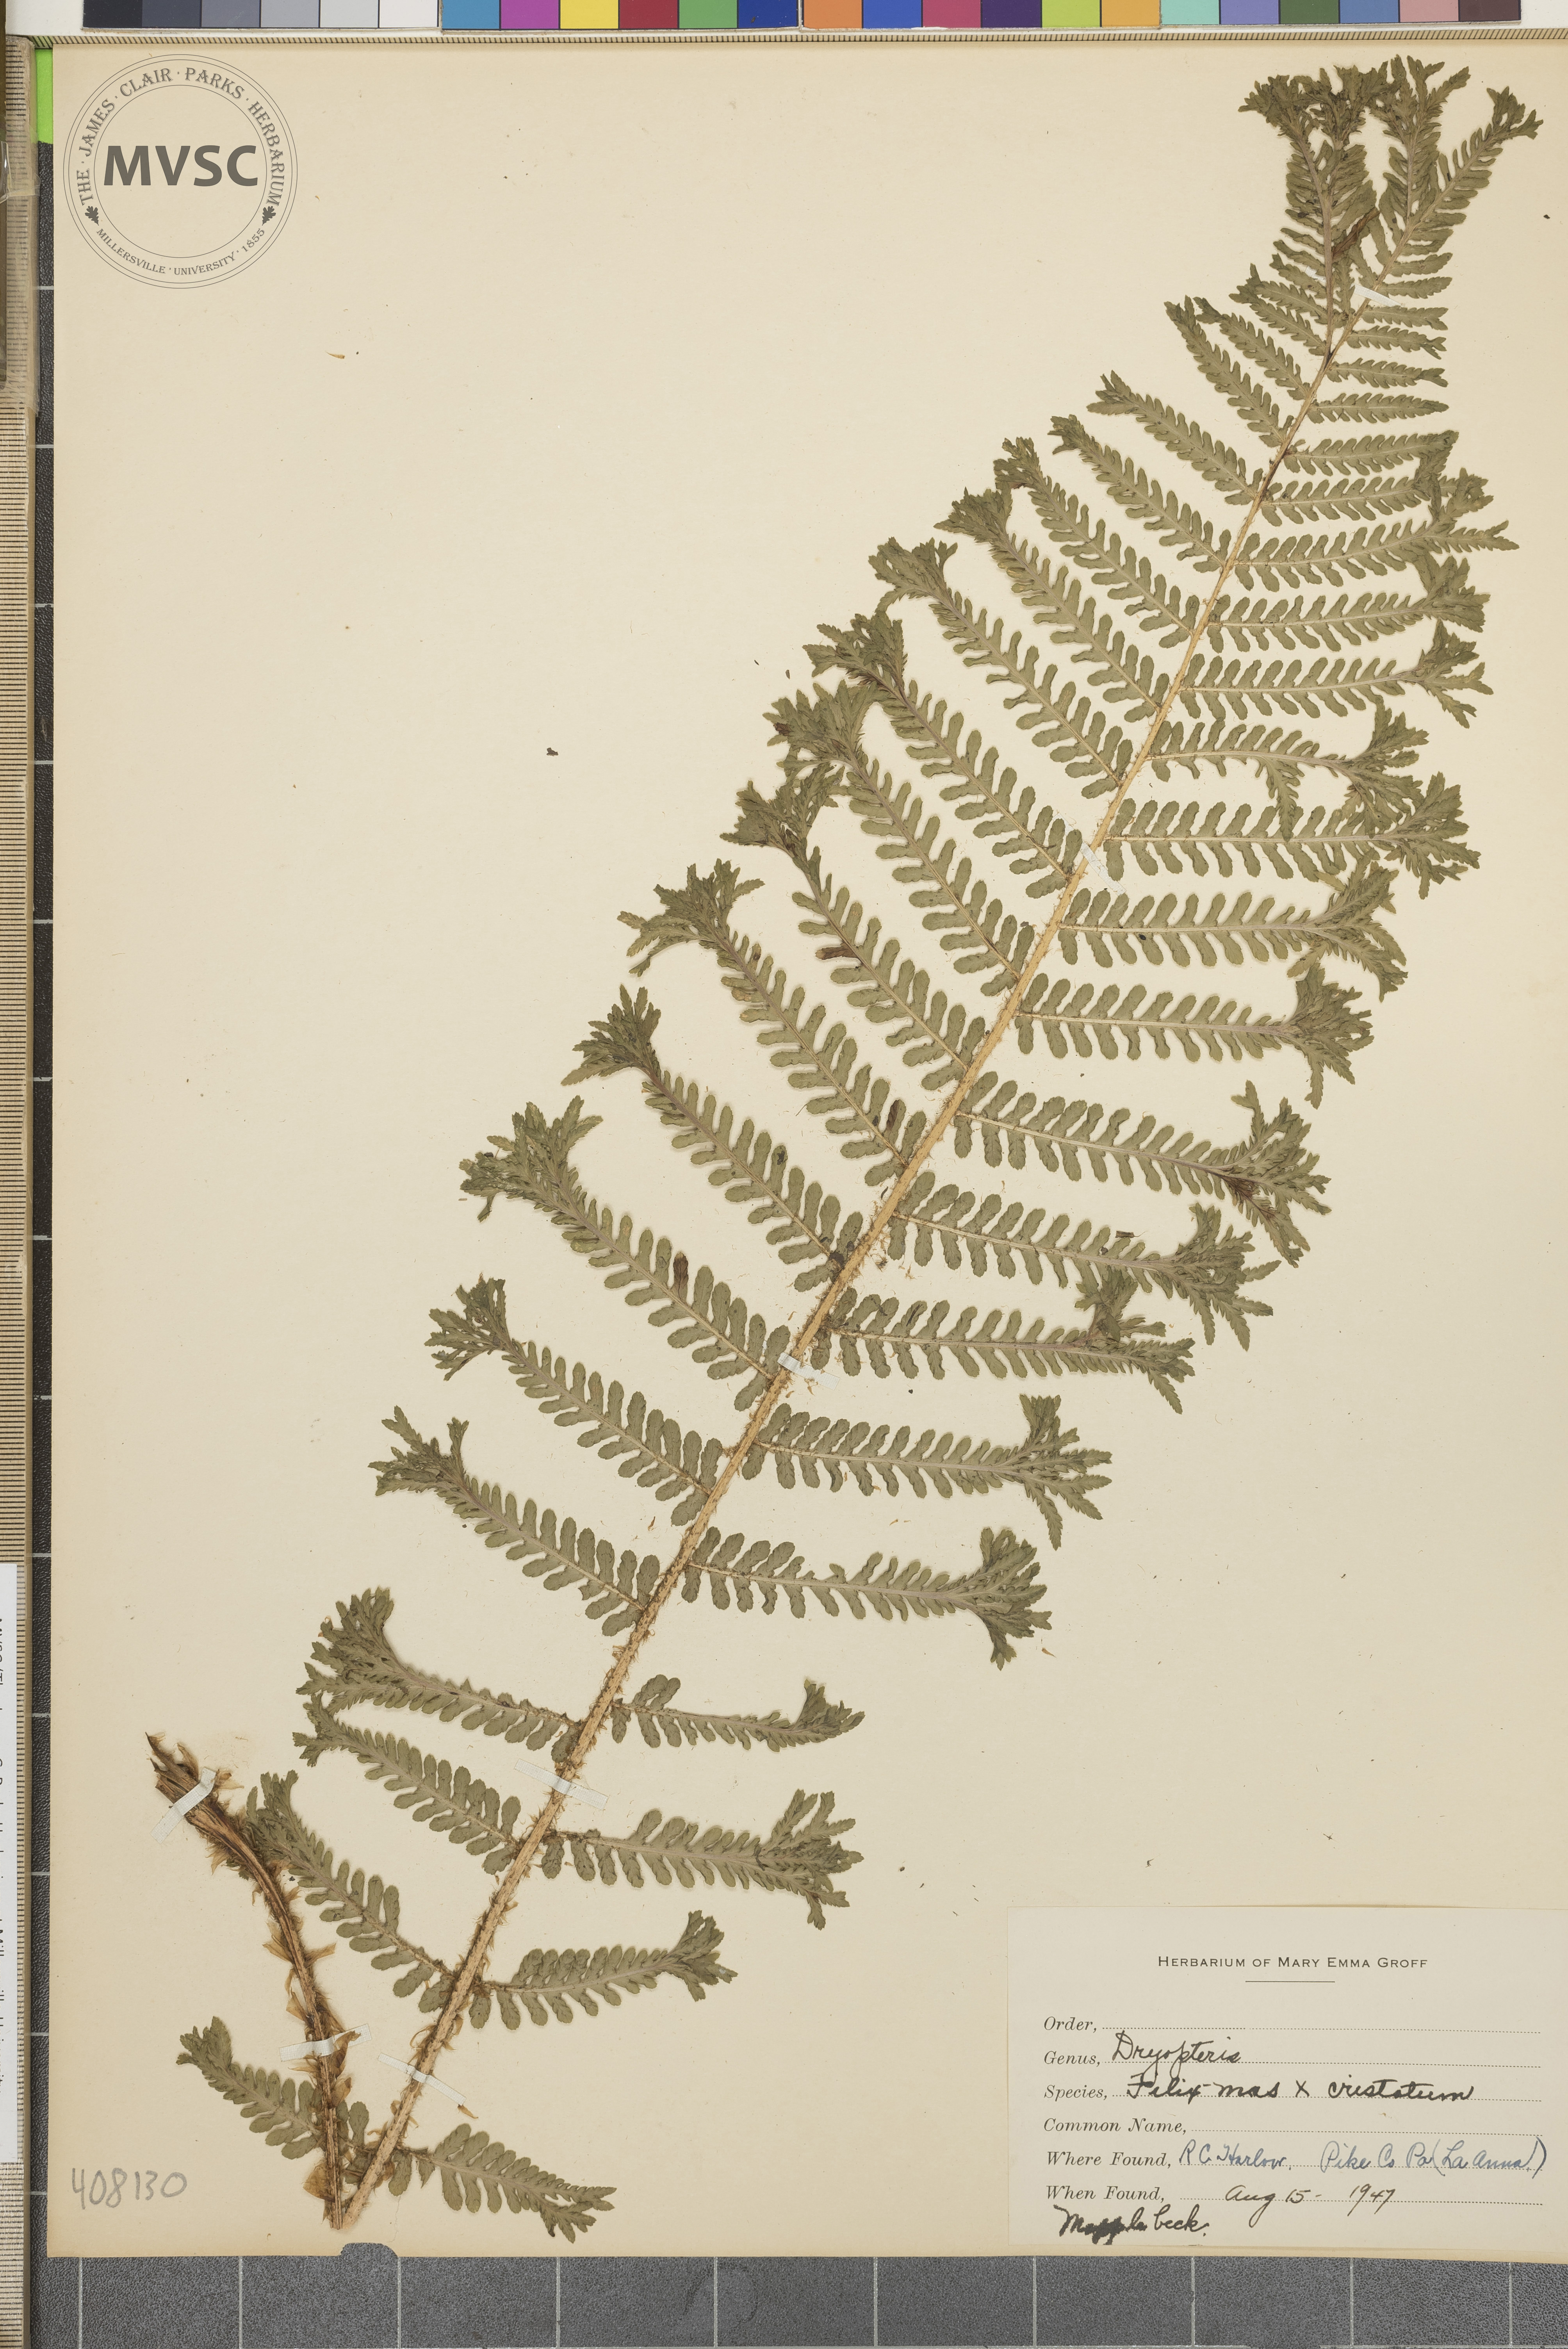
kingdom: Plantae
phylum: Tracheophyta
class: Polypodiopsida
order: Polypodiales
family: Dryopteridaceae
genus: Dryopteris
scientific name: Dryopteris
